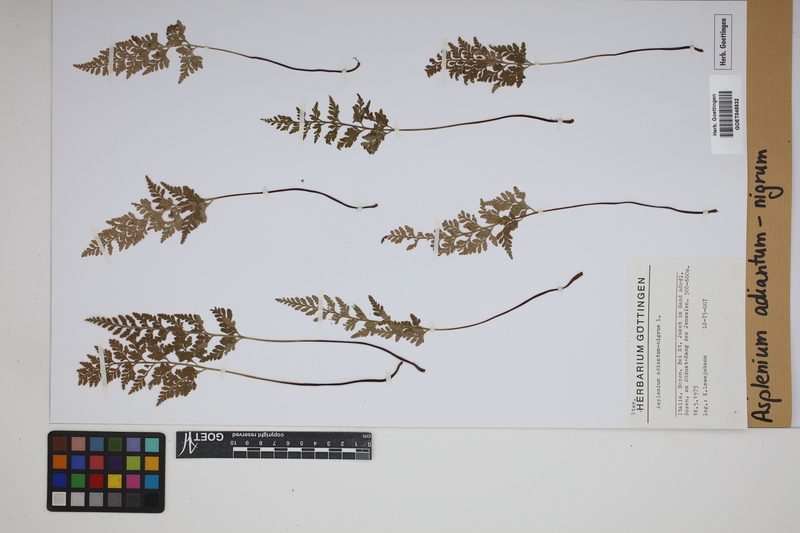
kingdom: Plantae
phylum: Tracheophyta
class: Polypodiopsida
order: Polypodiales
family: Aspleniaceae
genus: Asplenium
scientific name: Asplenium adiantum-nigrum
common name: Black spleenwort
